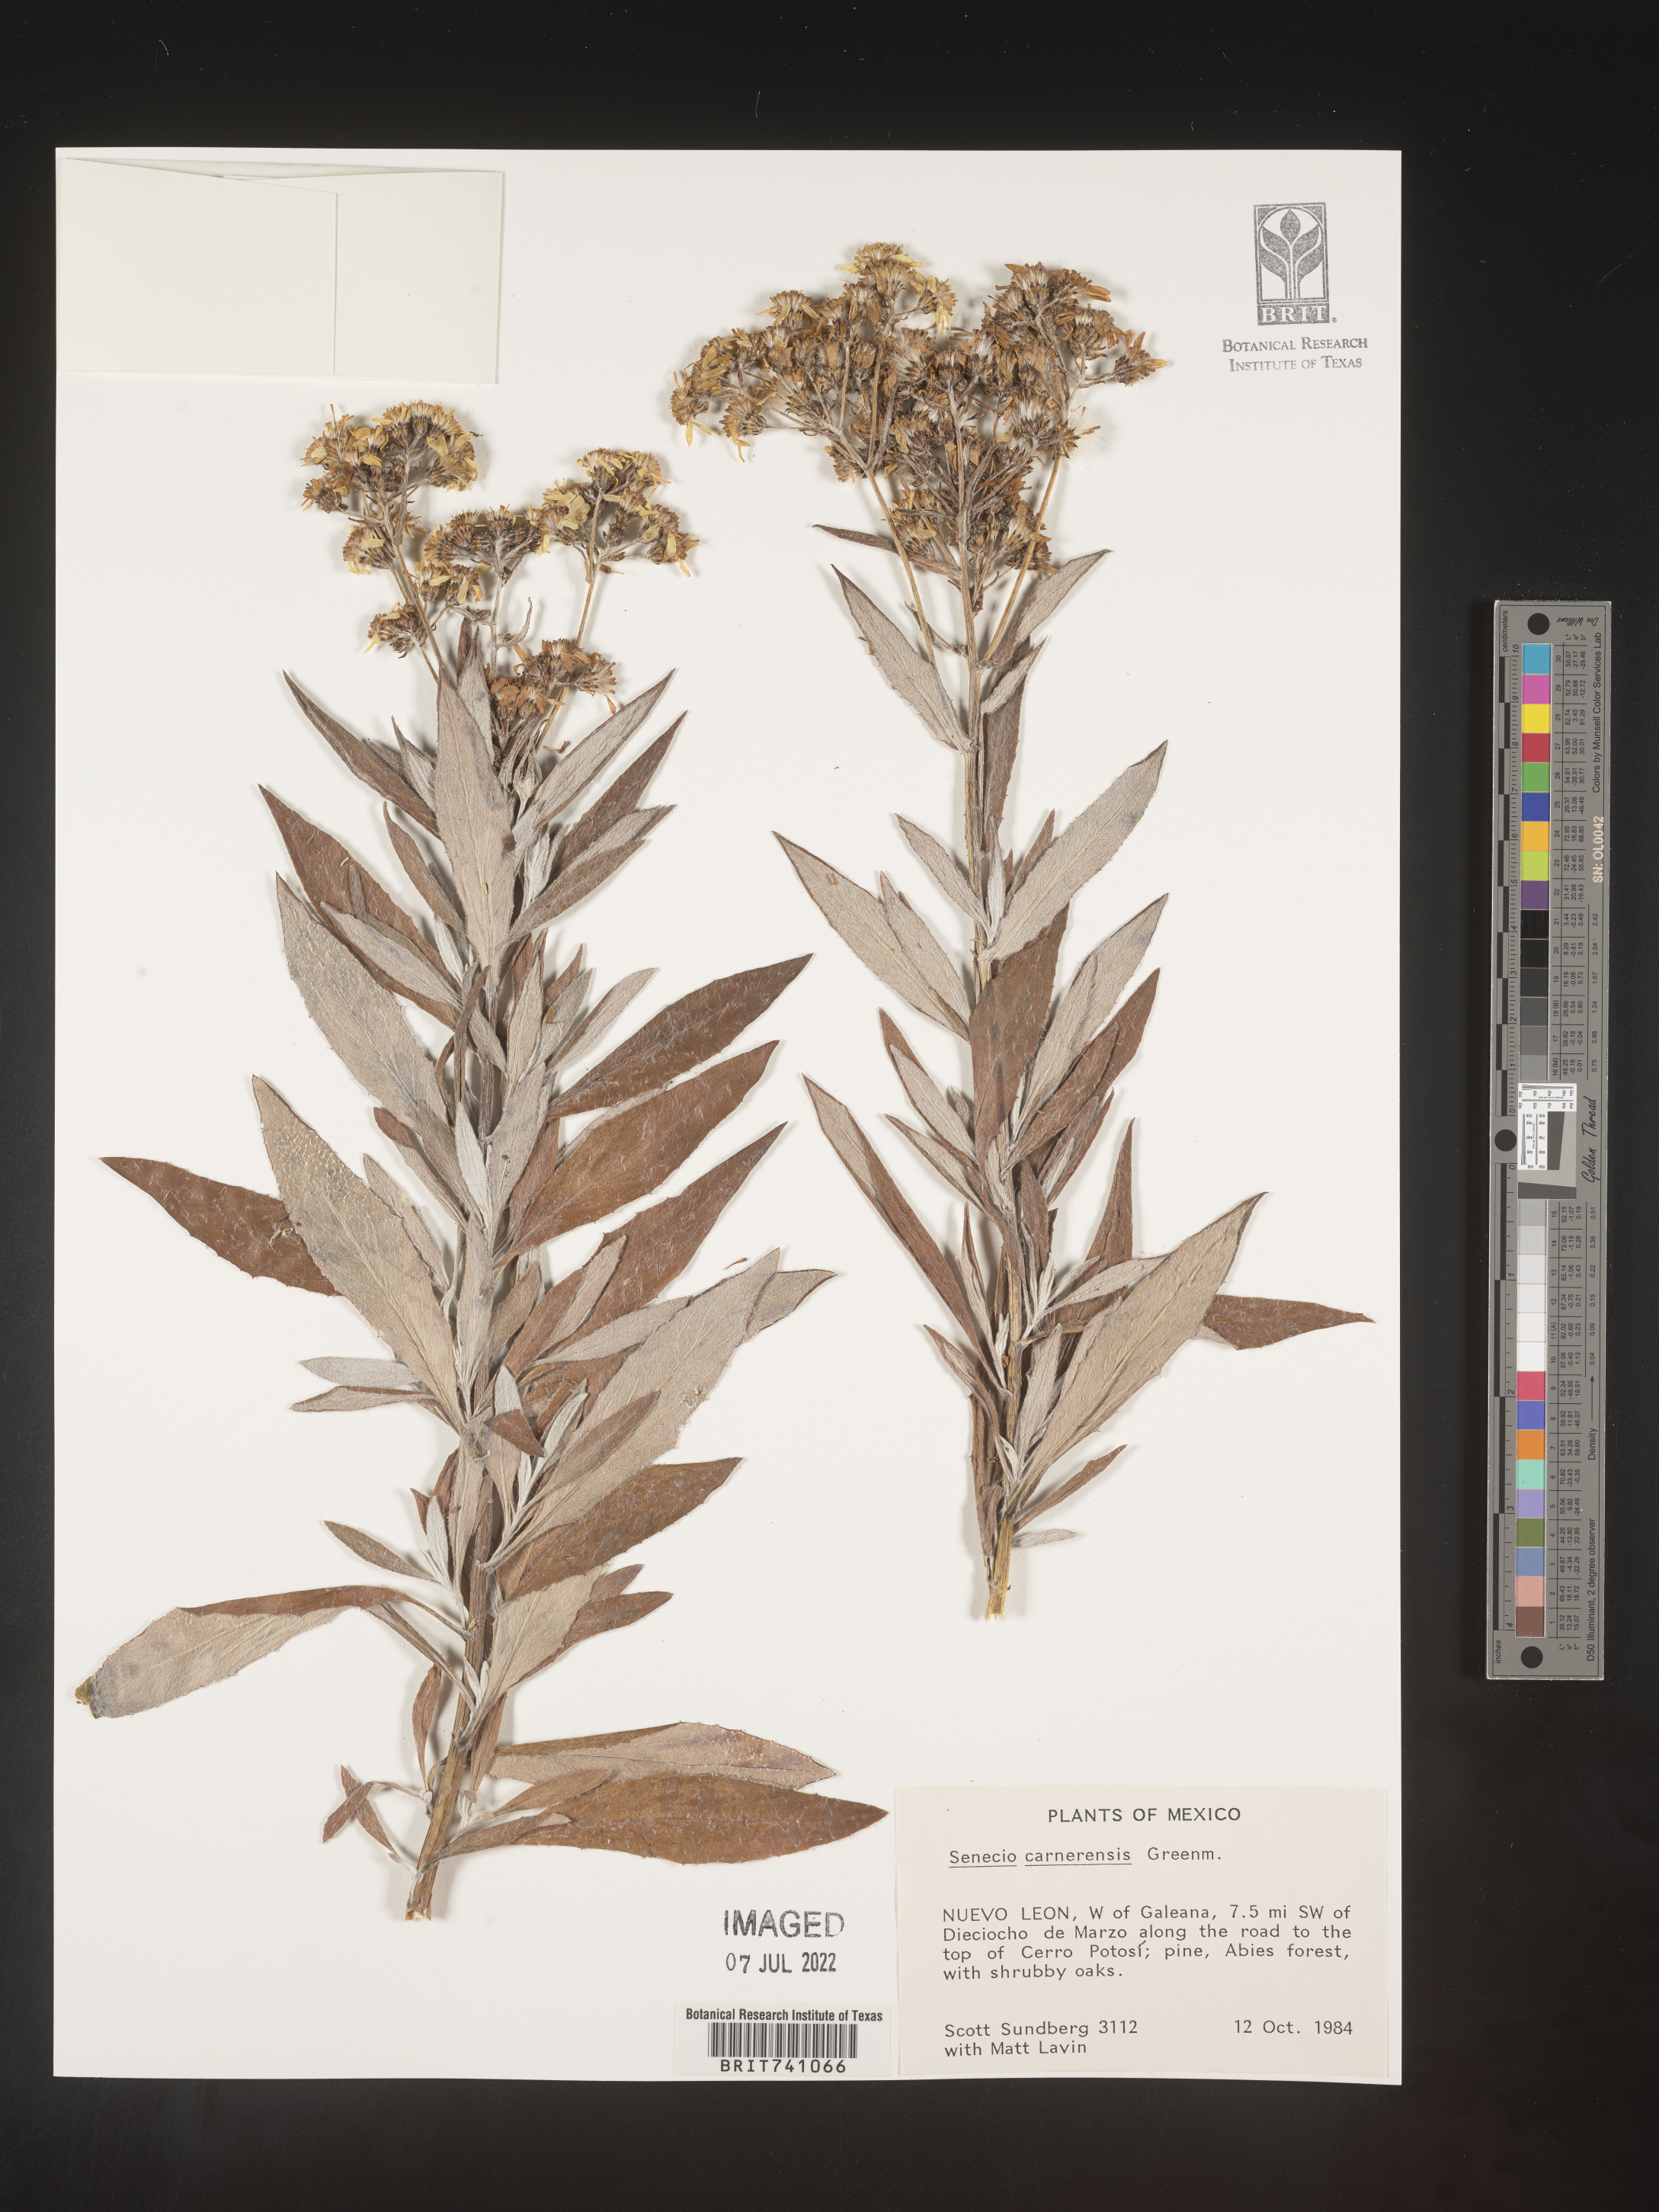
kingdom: Plantae
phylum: Tracheophyta
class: Magnoliopsida
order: Asterales
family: Asteraceae
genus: Senecio
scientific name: Senecio
